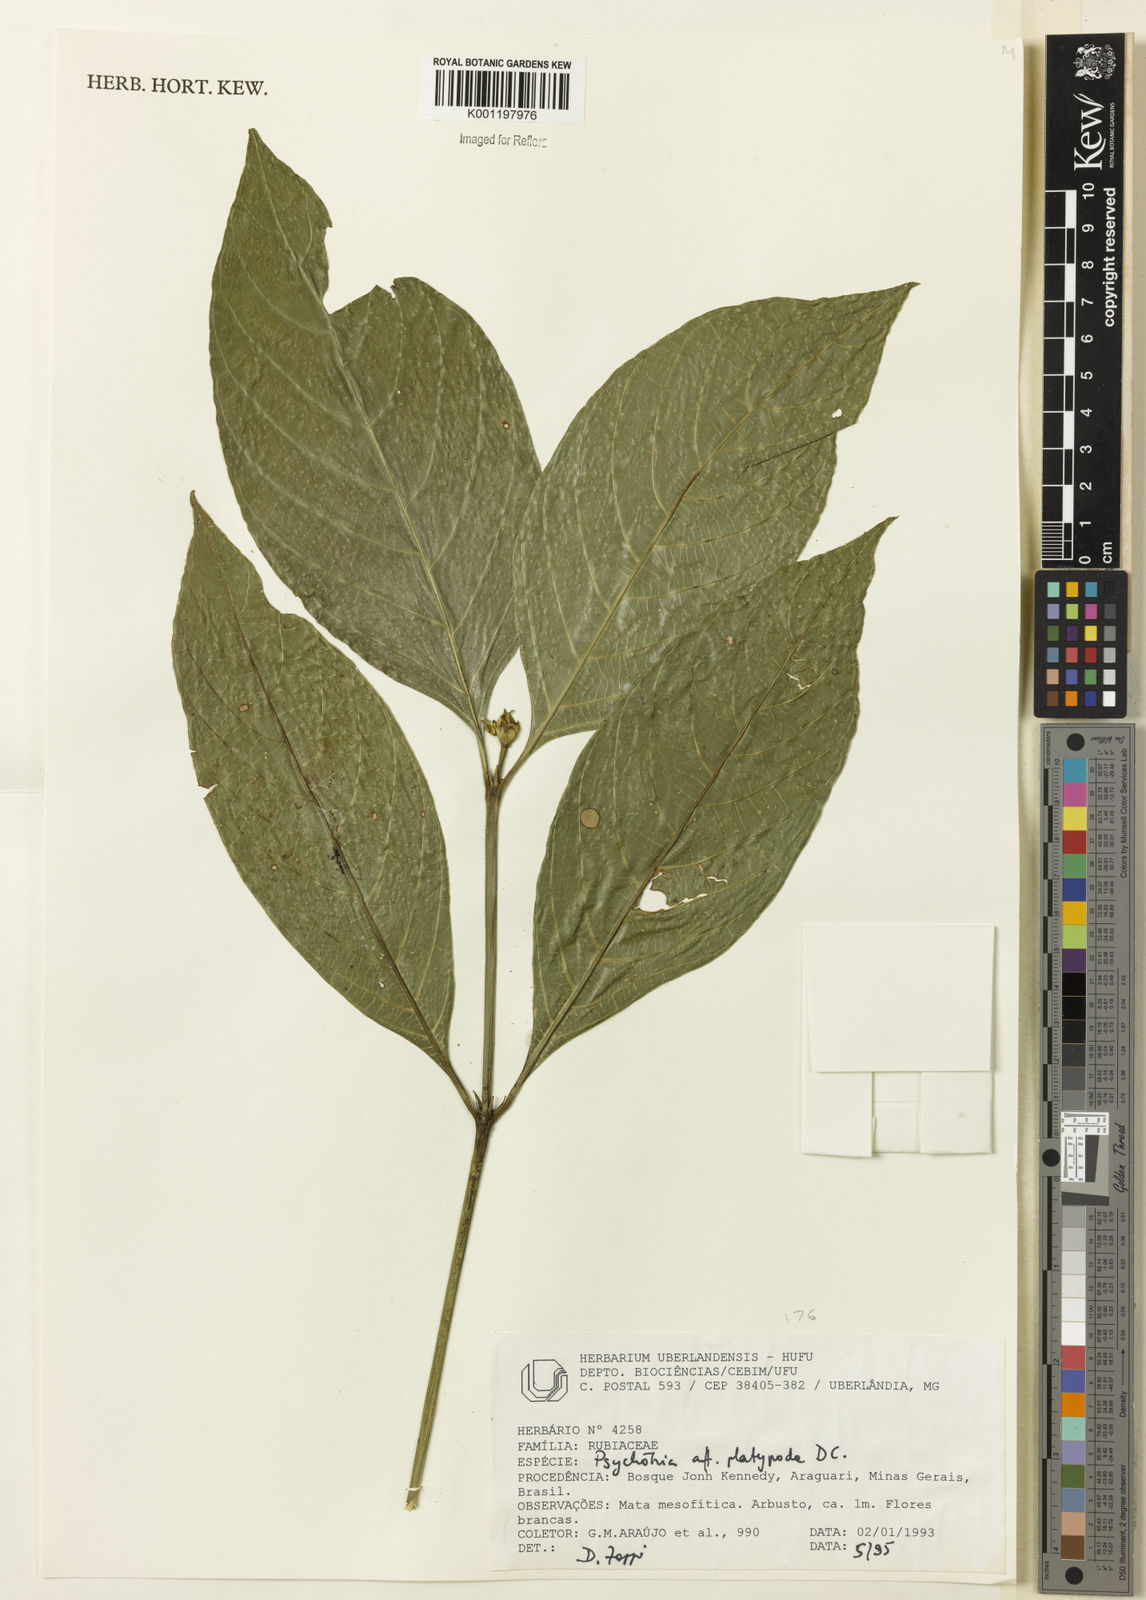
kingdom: Plantae
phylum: Tracheophyta
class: Magnoliopsida
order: Gentianales
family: Rubiaceae
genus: Palicourea
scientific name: Palicourea dichotoma
